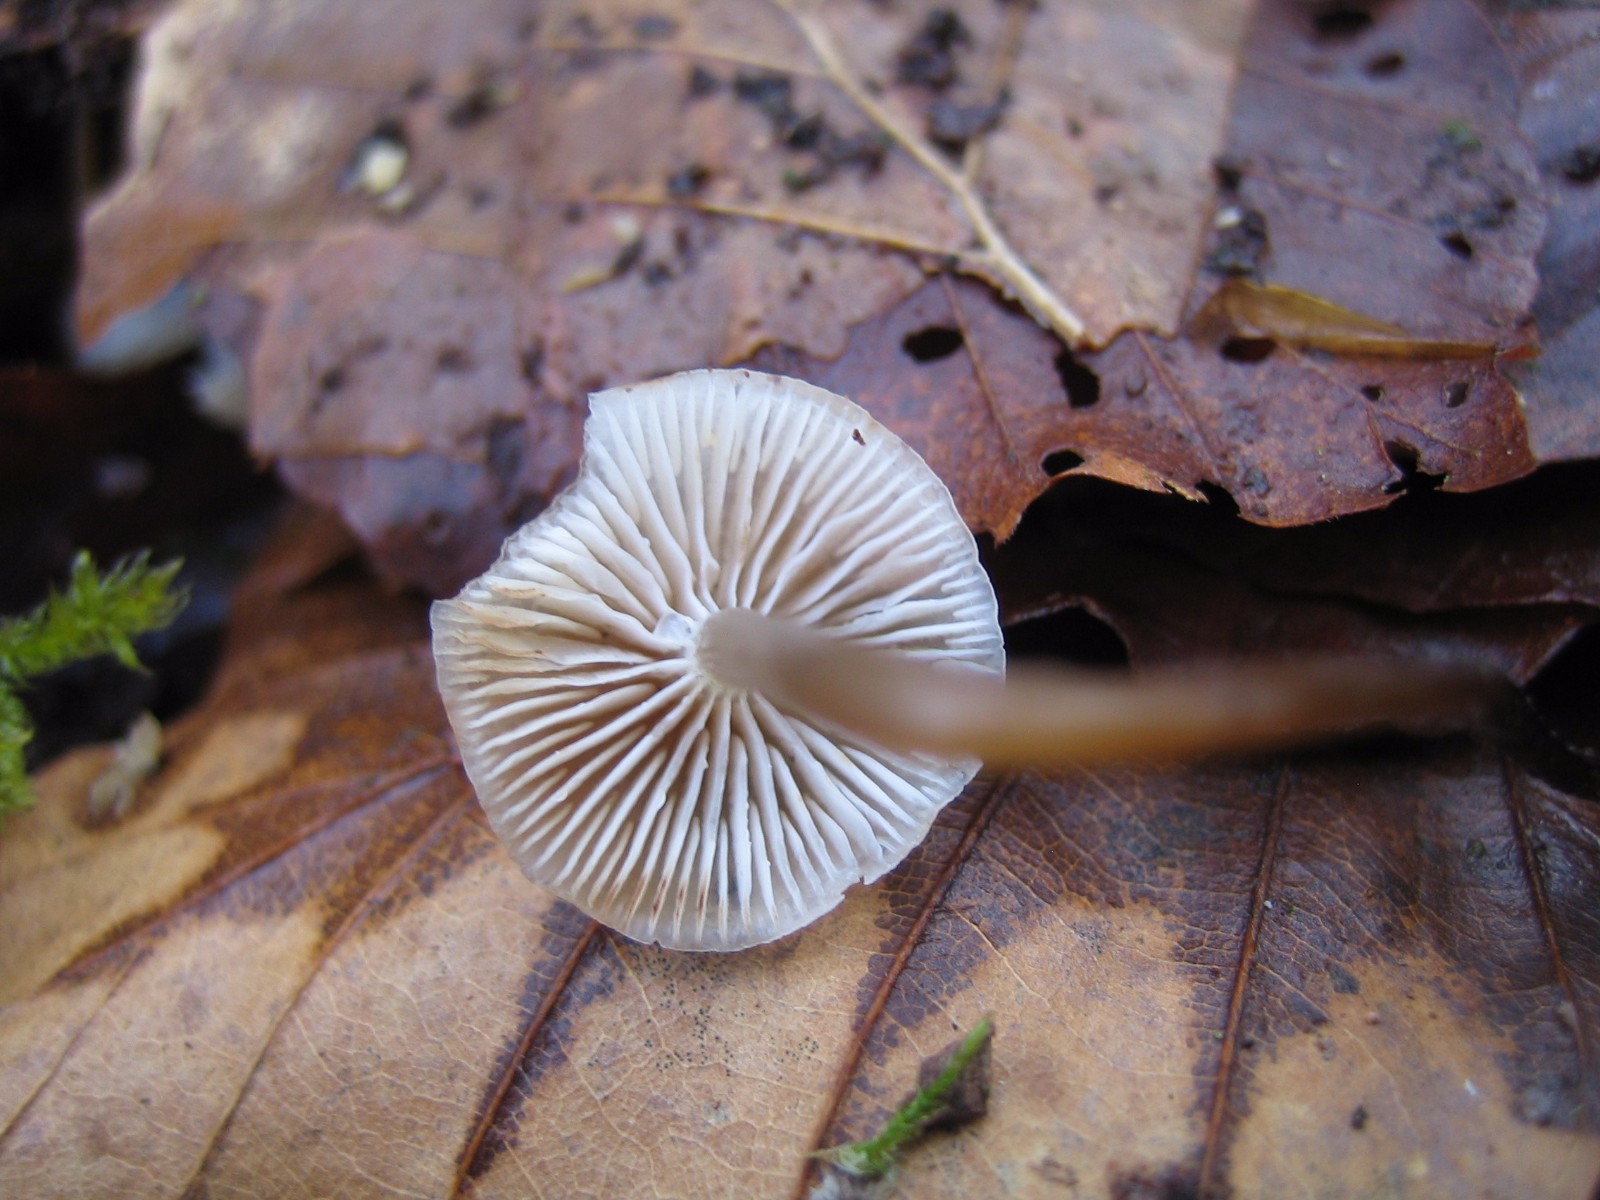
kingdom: Fungi
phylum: Basidiomycota
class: Agaricomycetes
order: Agaricales
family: Mycenaceae
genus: Mycena
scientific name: Mycena tintinnabulum
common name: vinter-huesvamp
